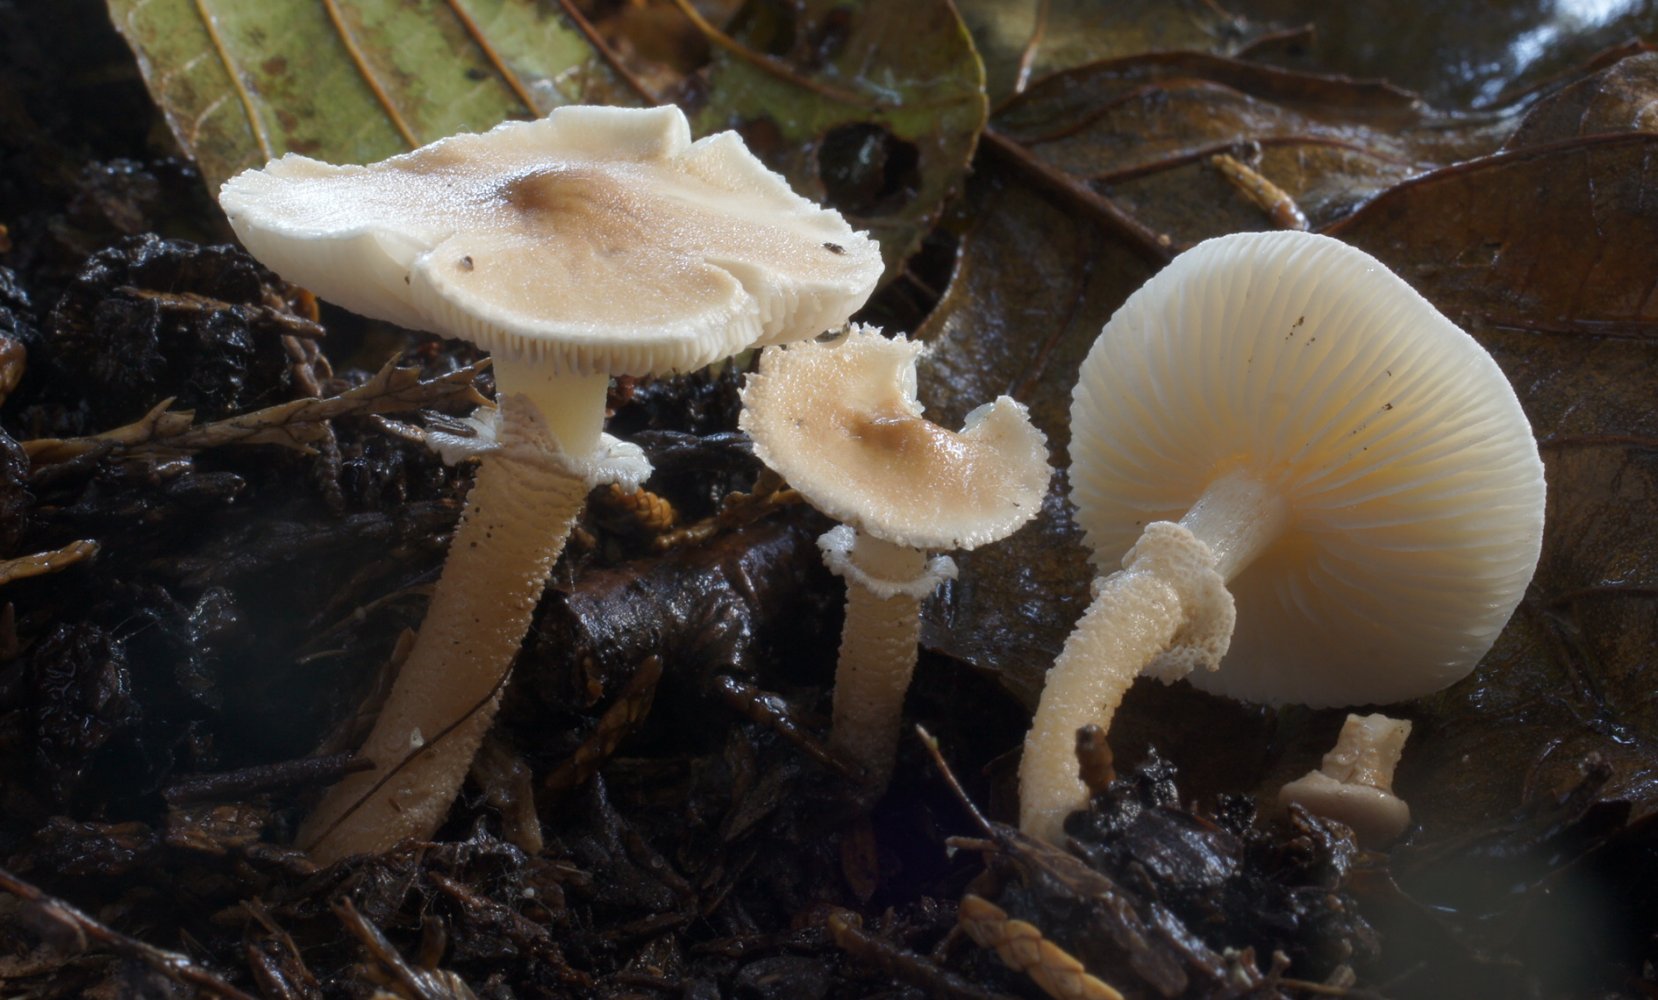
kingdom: Fungi
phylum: Basidiomycota
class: Agaricomycetes
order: Agaricales
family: Tricholomataceae
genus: Cystoderma
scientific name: Cystoderma carcharias
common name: rødgrå grynhat
